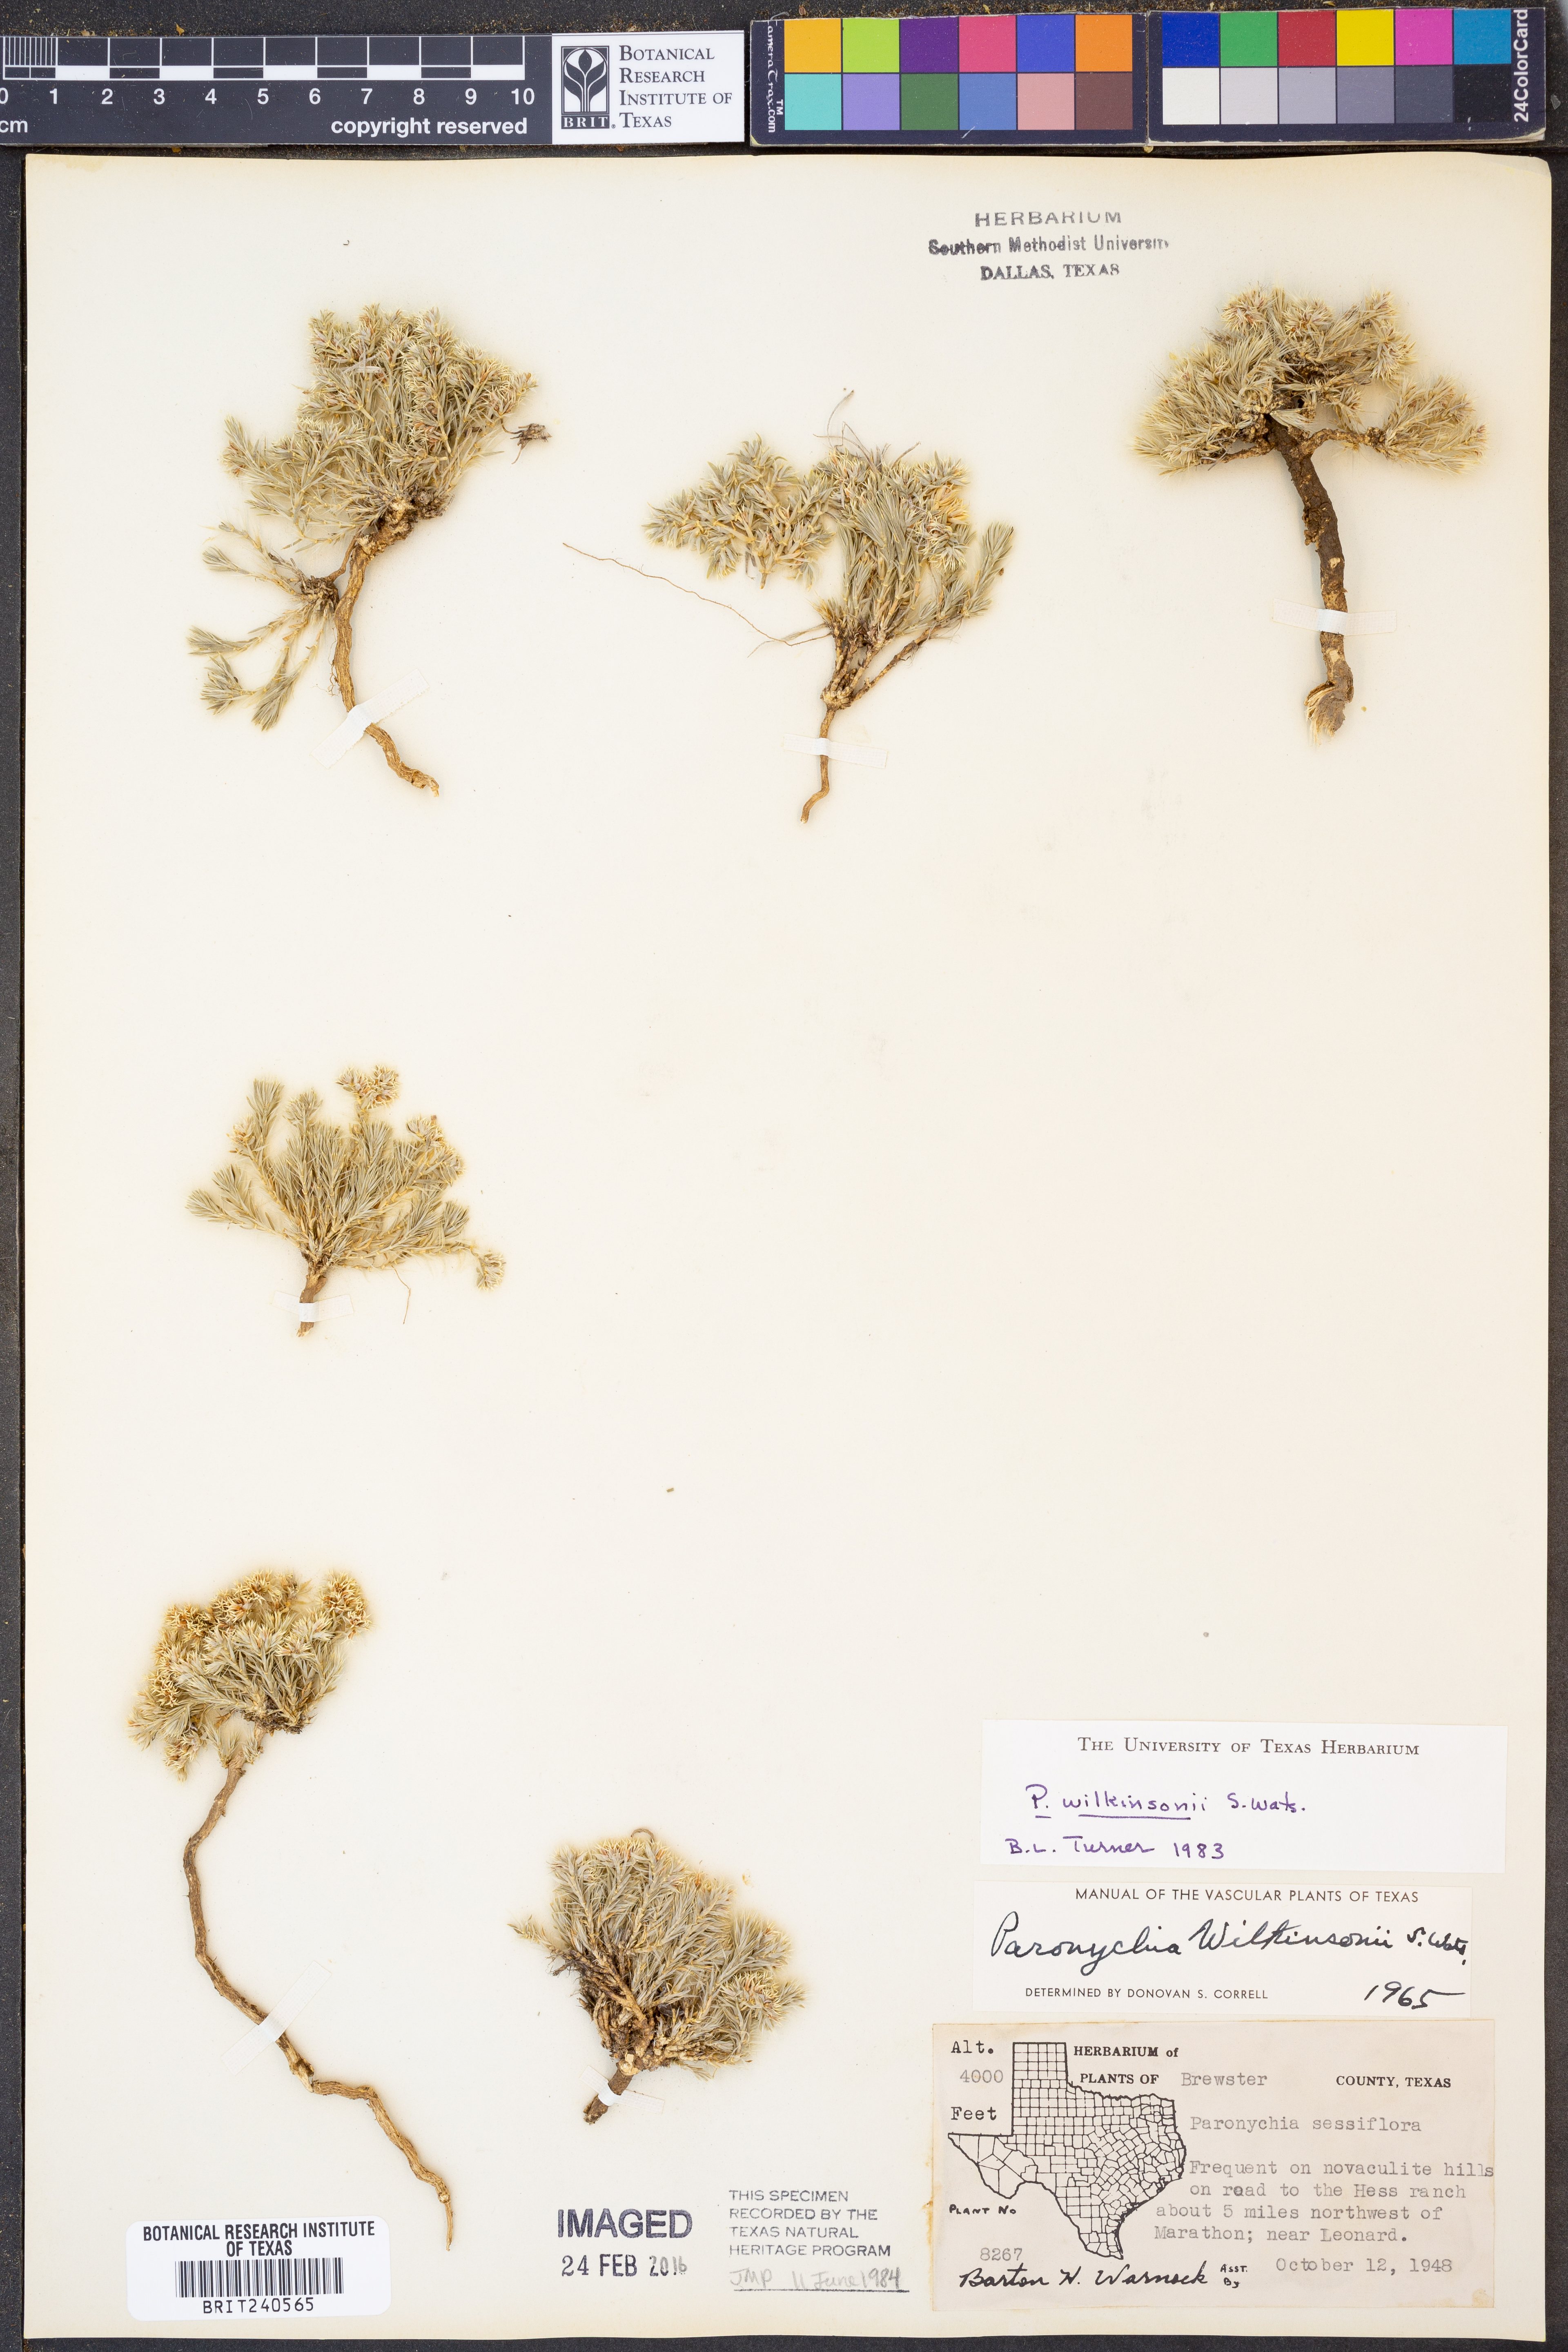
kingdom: Plantae
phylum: Tracheophyta
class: Magnoliopsida
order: Caryophyllales
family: Caryophyllaceae
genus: Paronychia
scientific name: Paronychia wilkinsonii
